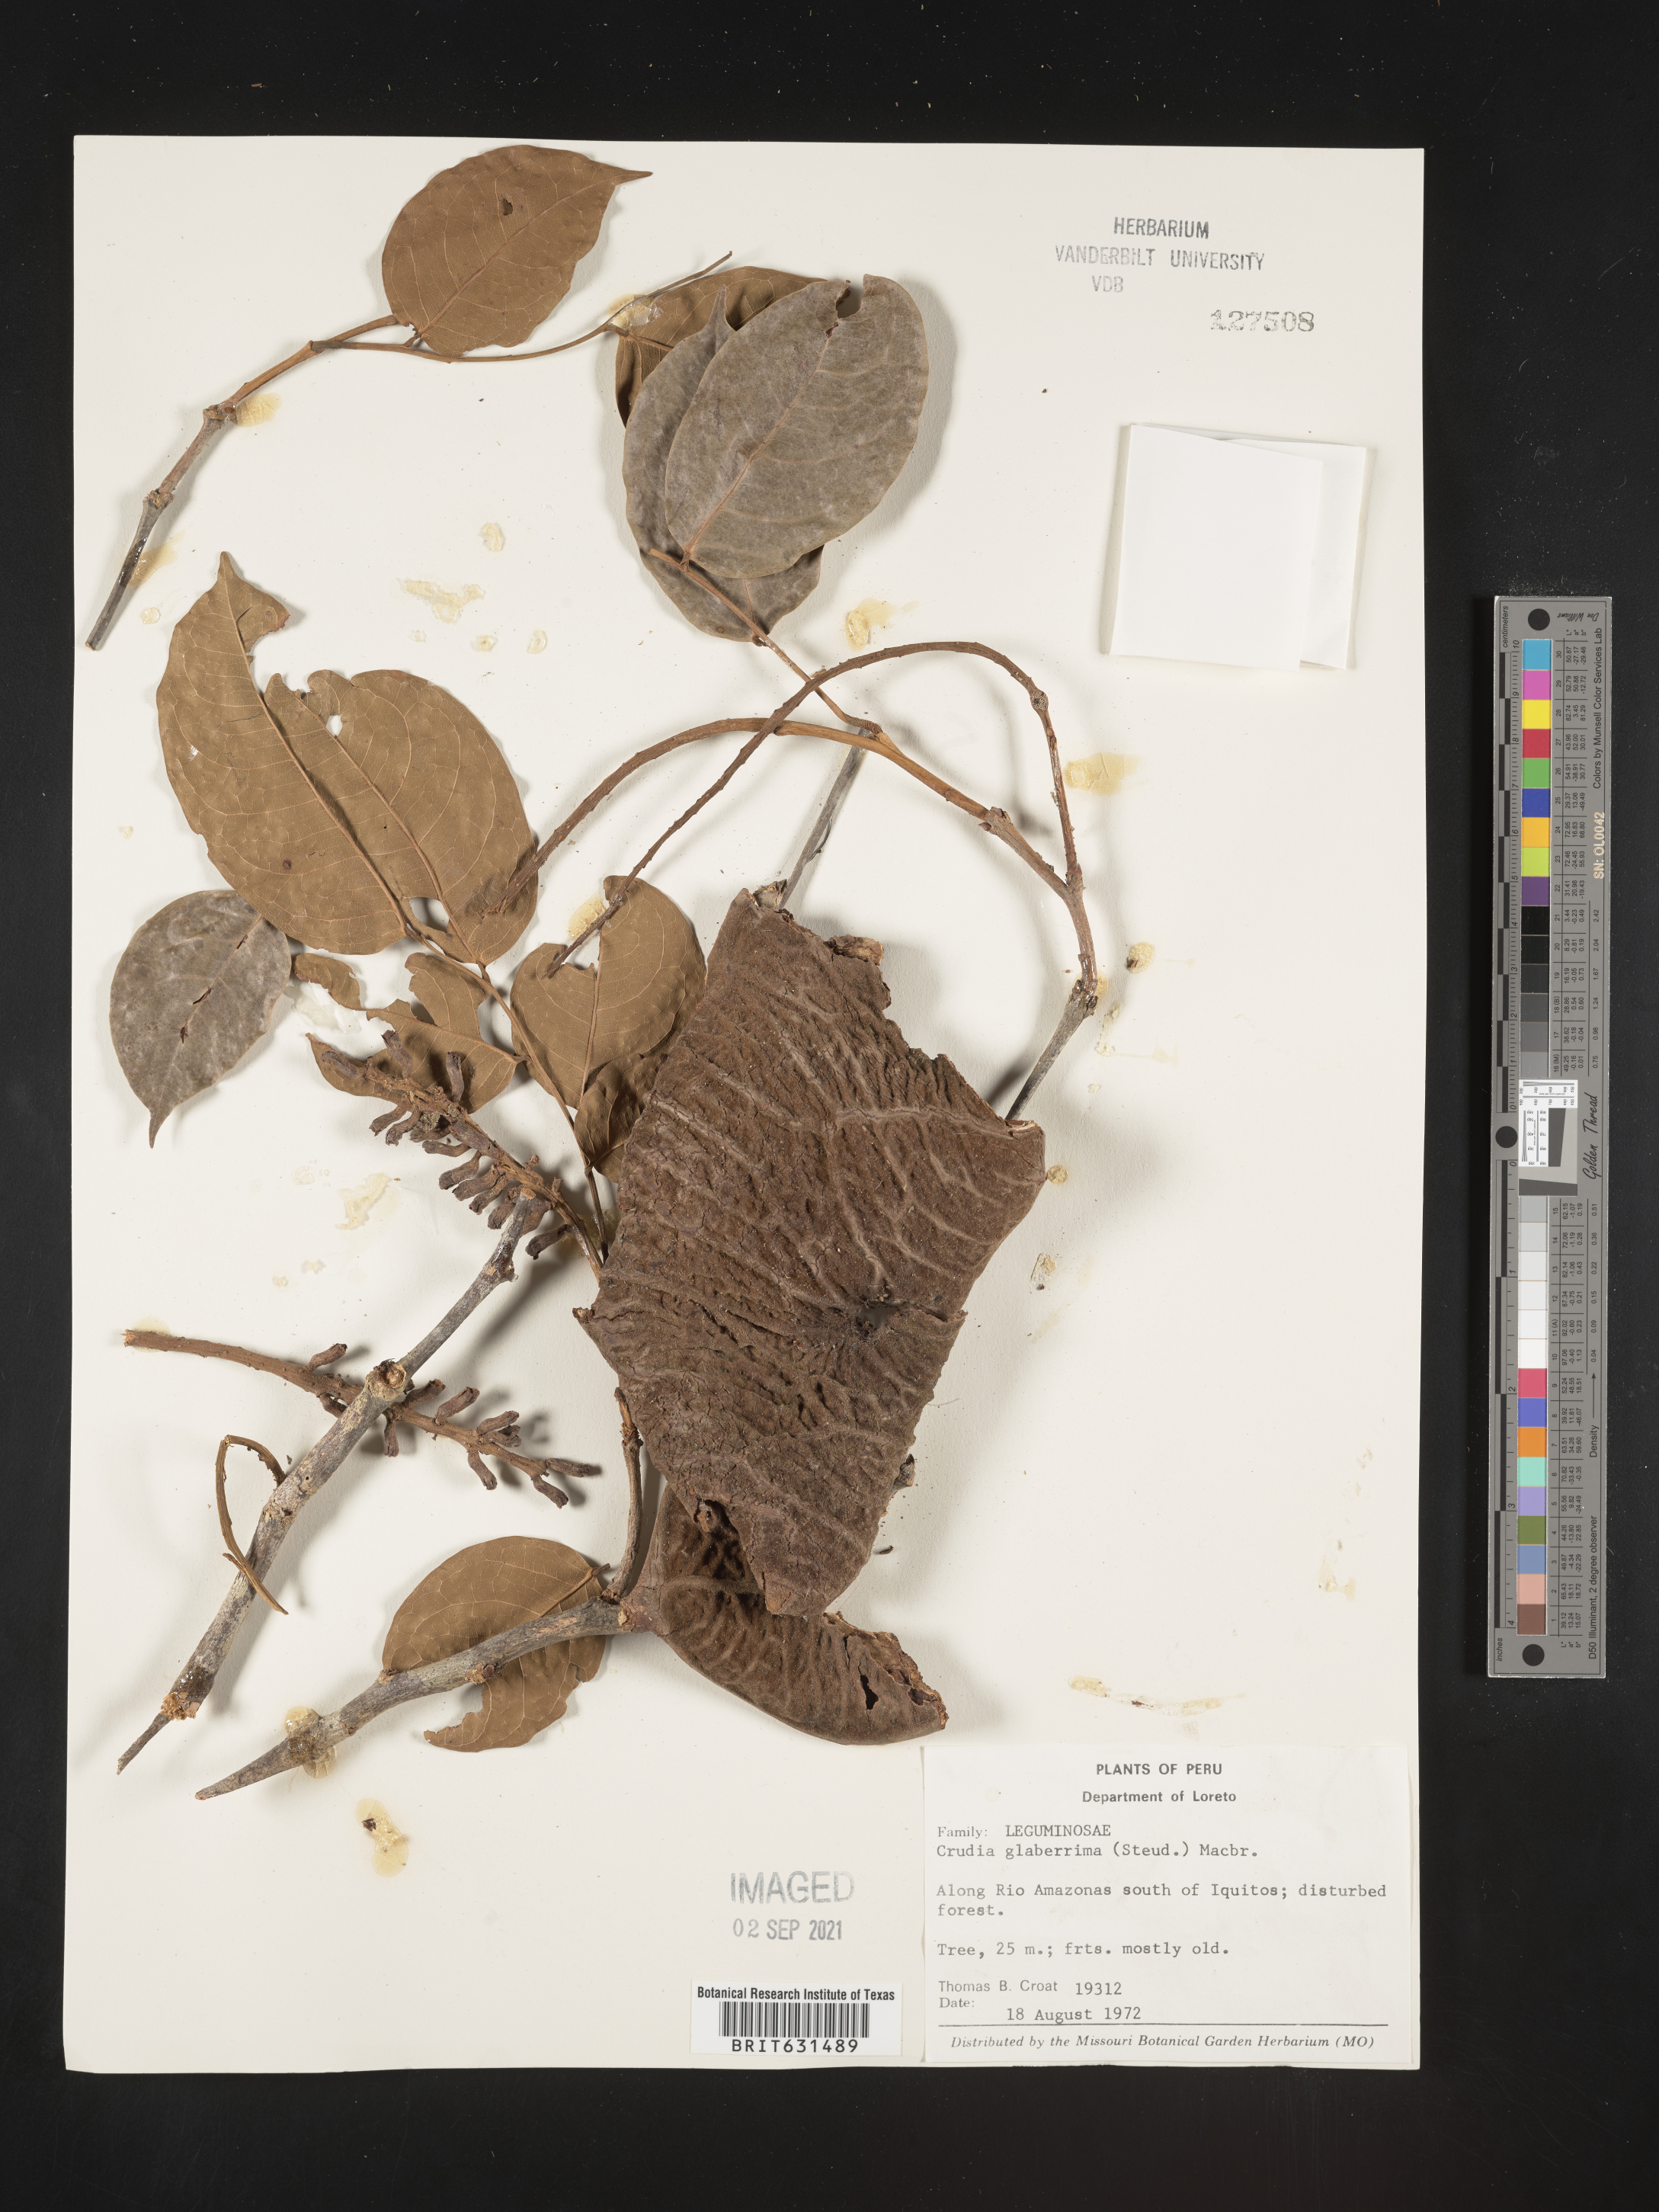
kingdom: Plantae
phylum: Tracheophyta
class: Magnoliopsida
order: Fabales
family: Fabaceae
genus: Crudia
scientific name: Crudia glaberrima
